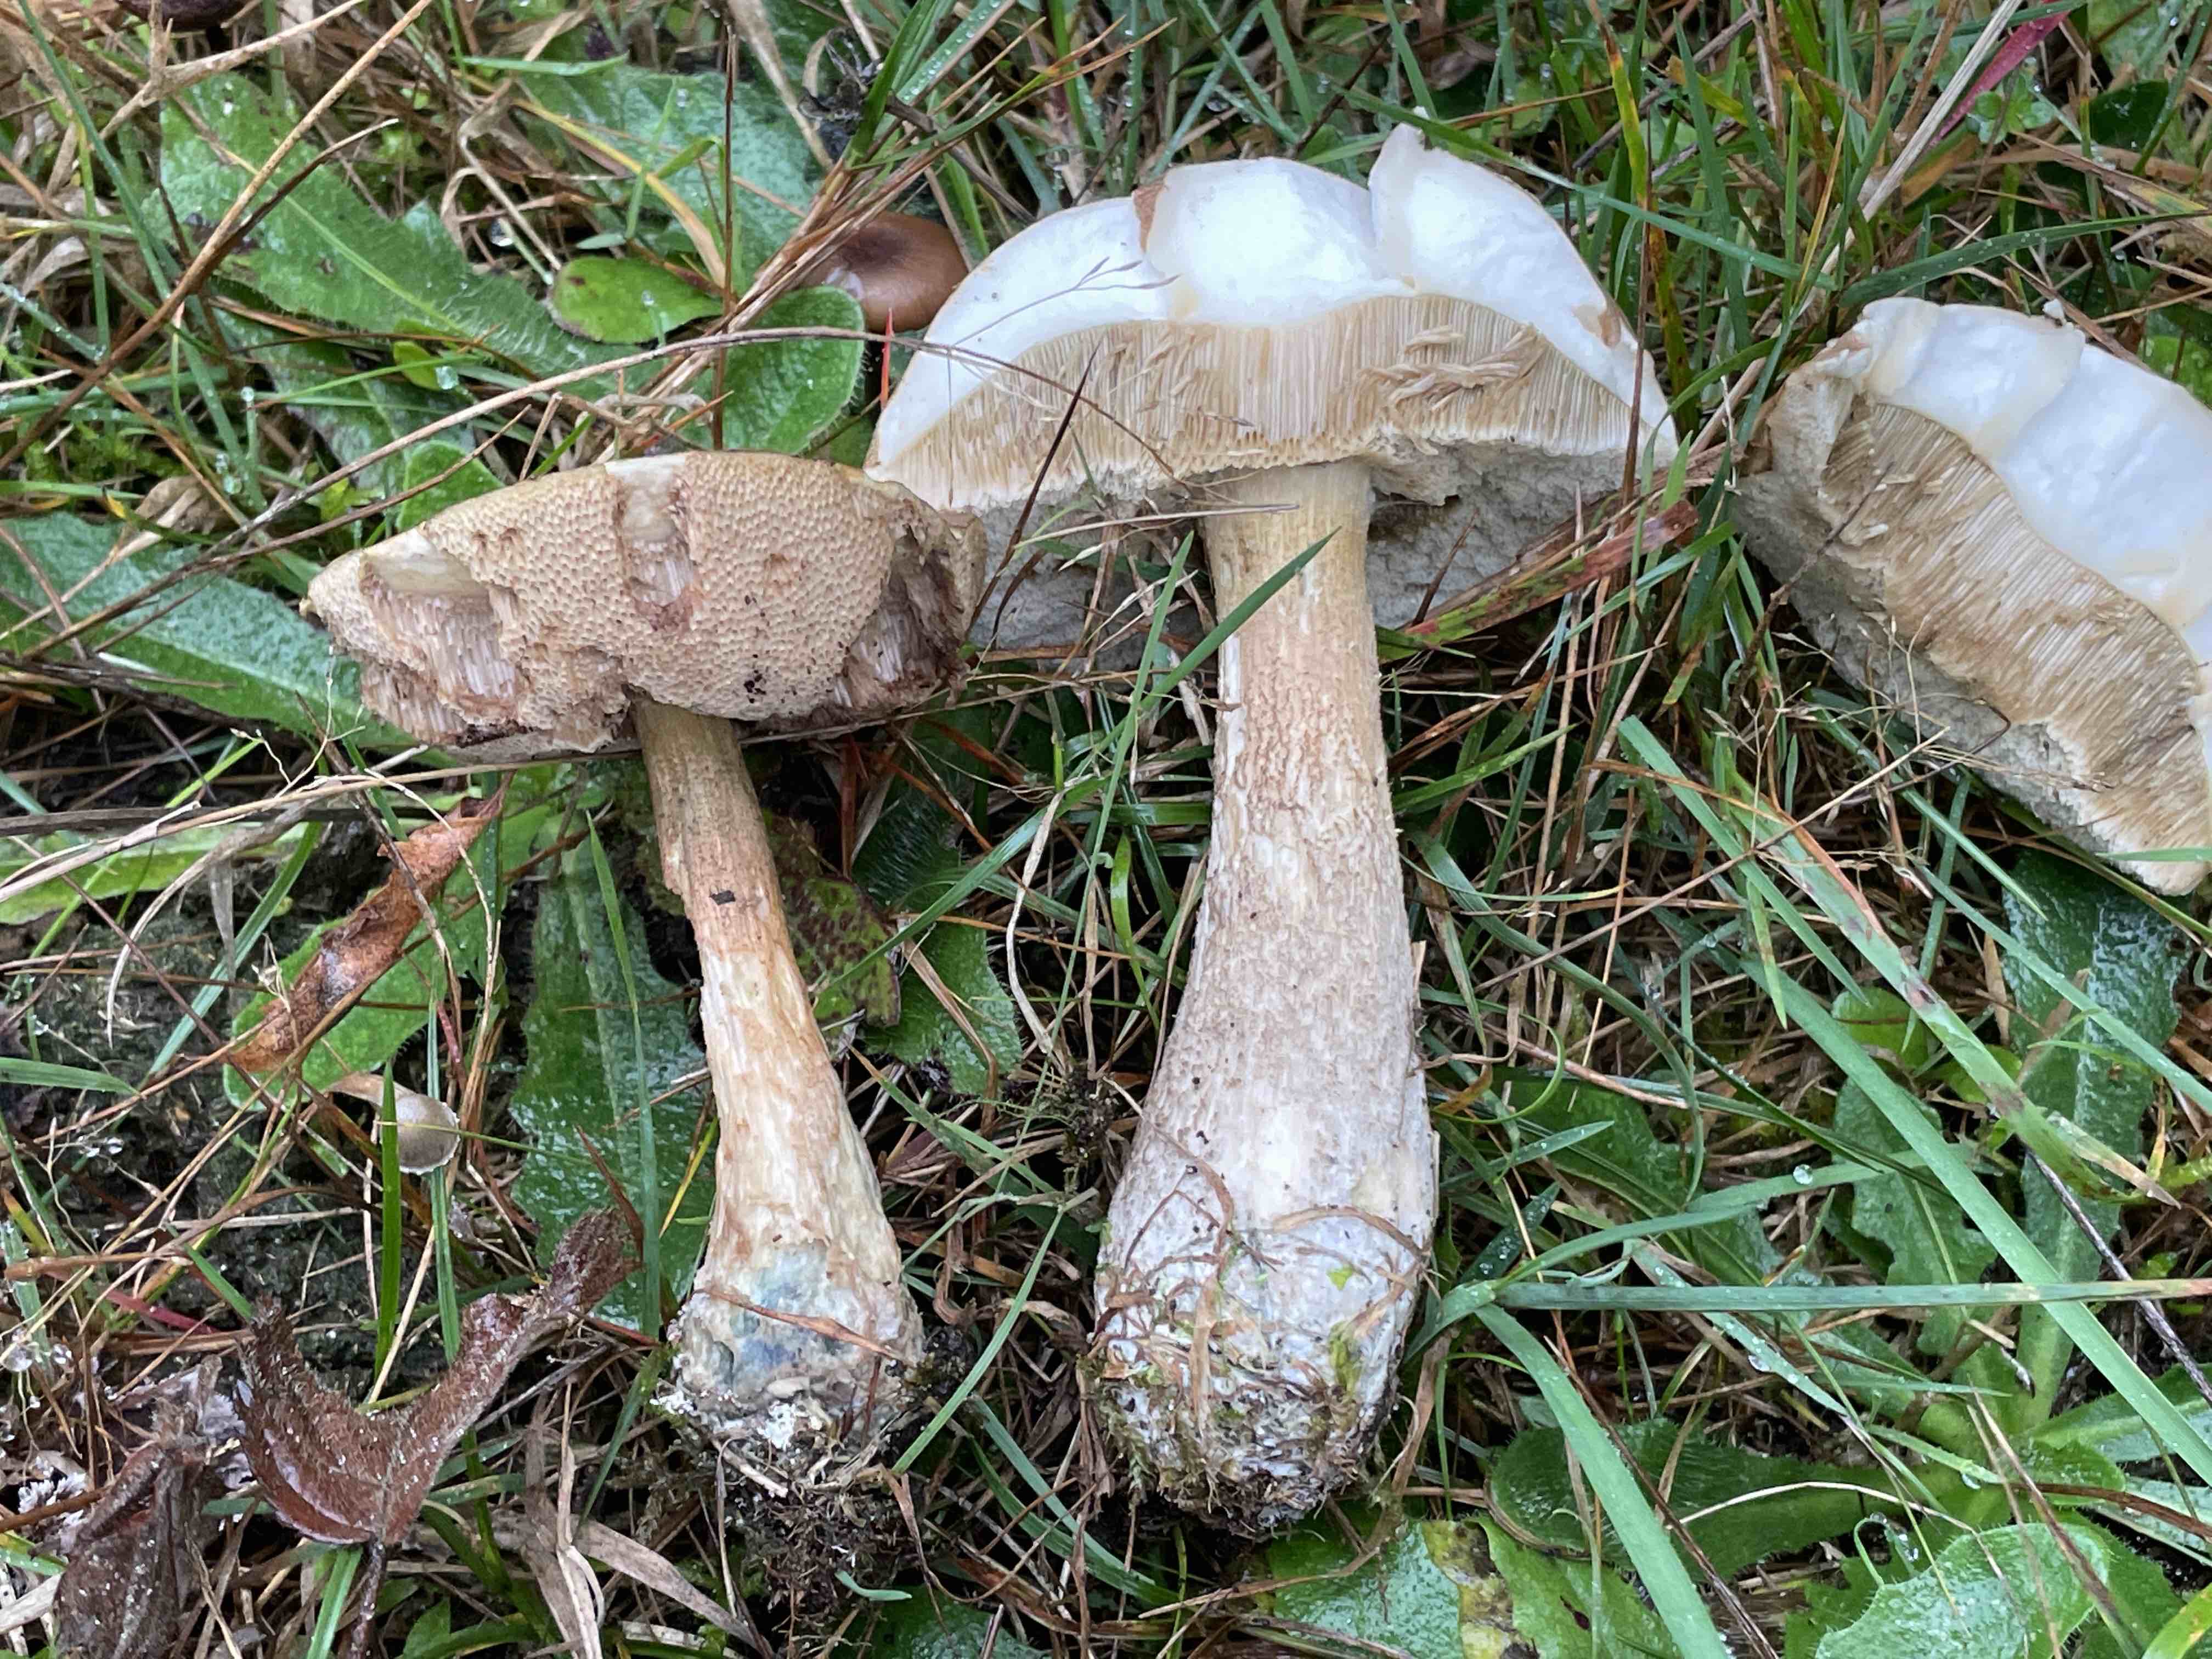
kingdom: Fungi
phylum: Basidiomycota
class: Agaricomycetes
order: Boletales
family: Boletaceae
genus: Leccinum
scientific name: Leccinum
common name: skælrørhat
